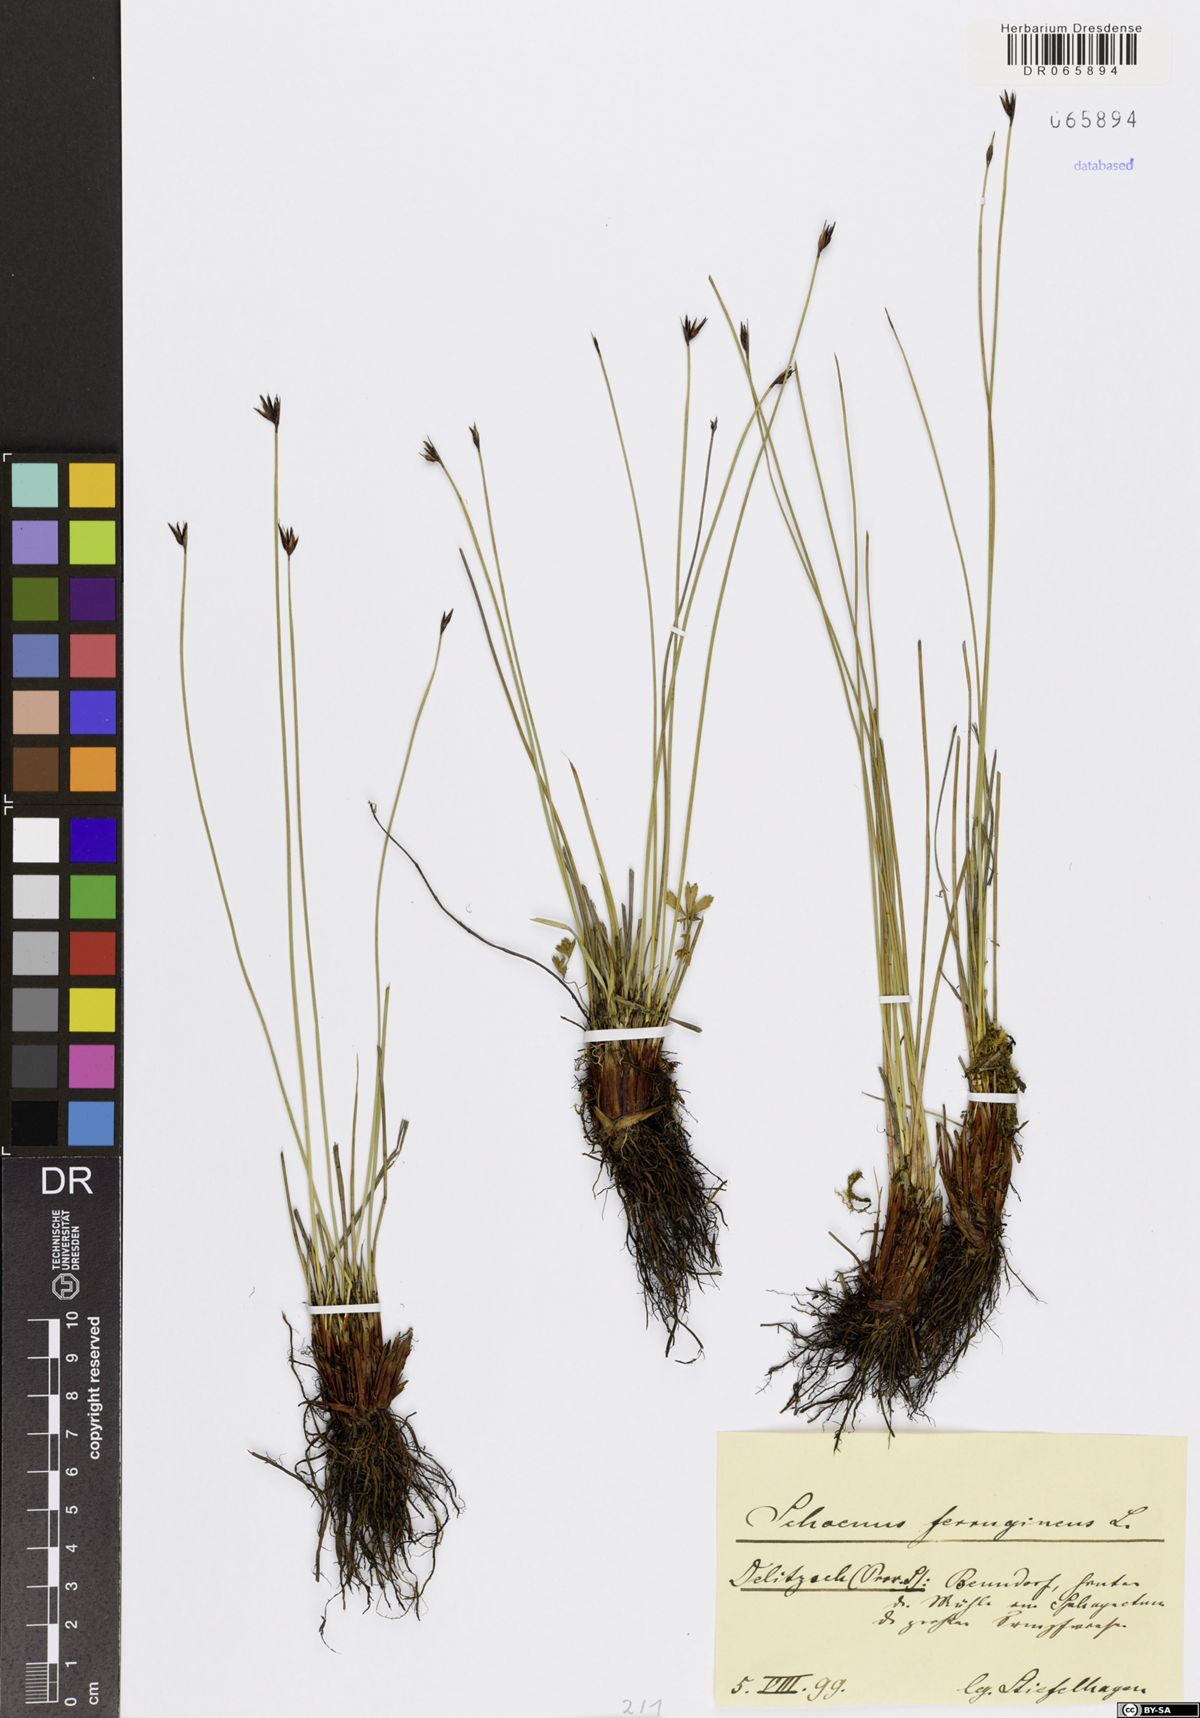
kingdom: Plantae
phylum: Tracheophyta
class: Liliopsida
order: Poales
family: Cyperaceae
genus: Schoenus
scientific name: Schoenus ferrugineus
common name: Brown bog-rush
